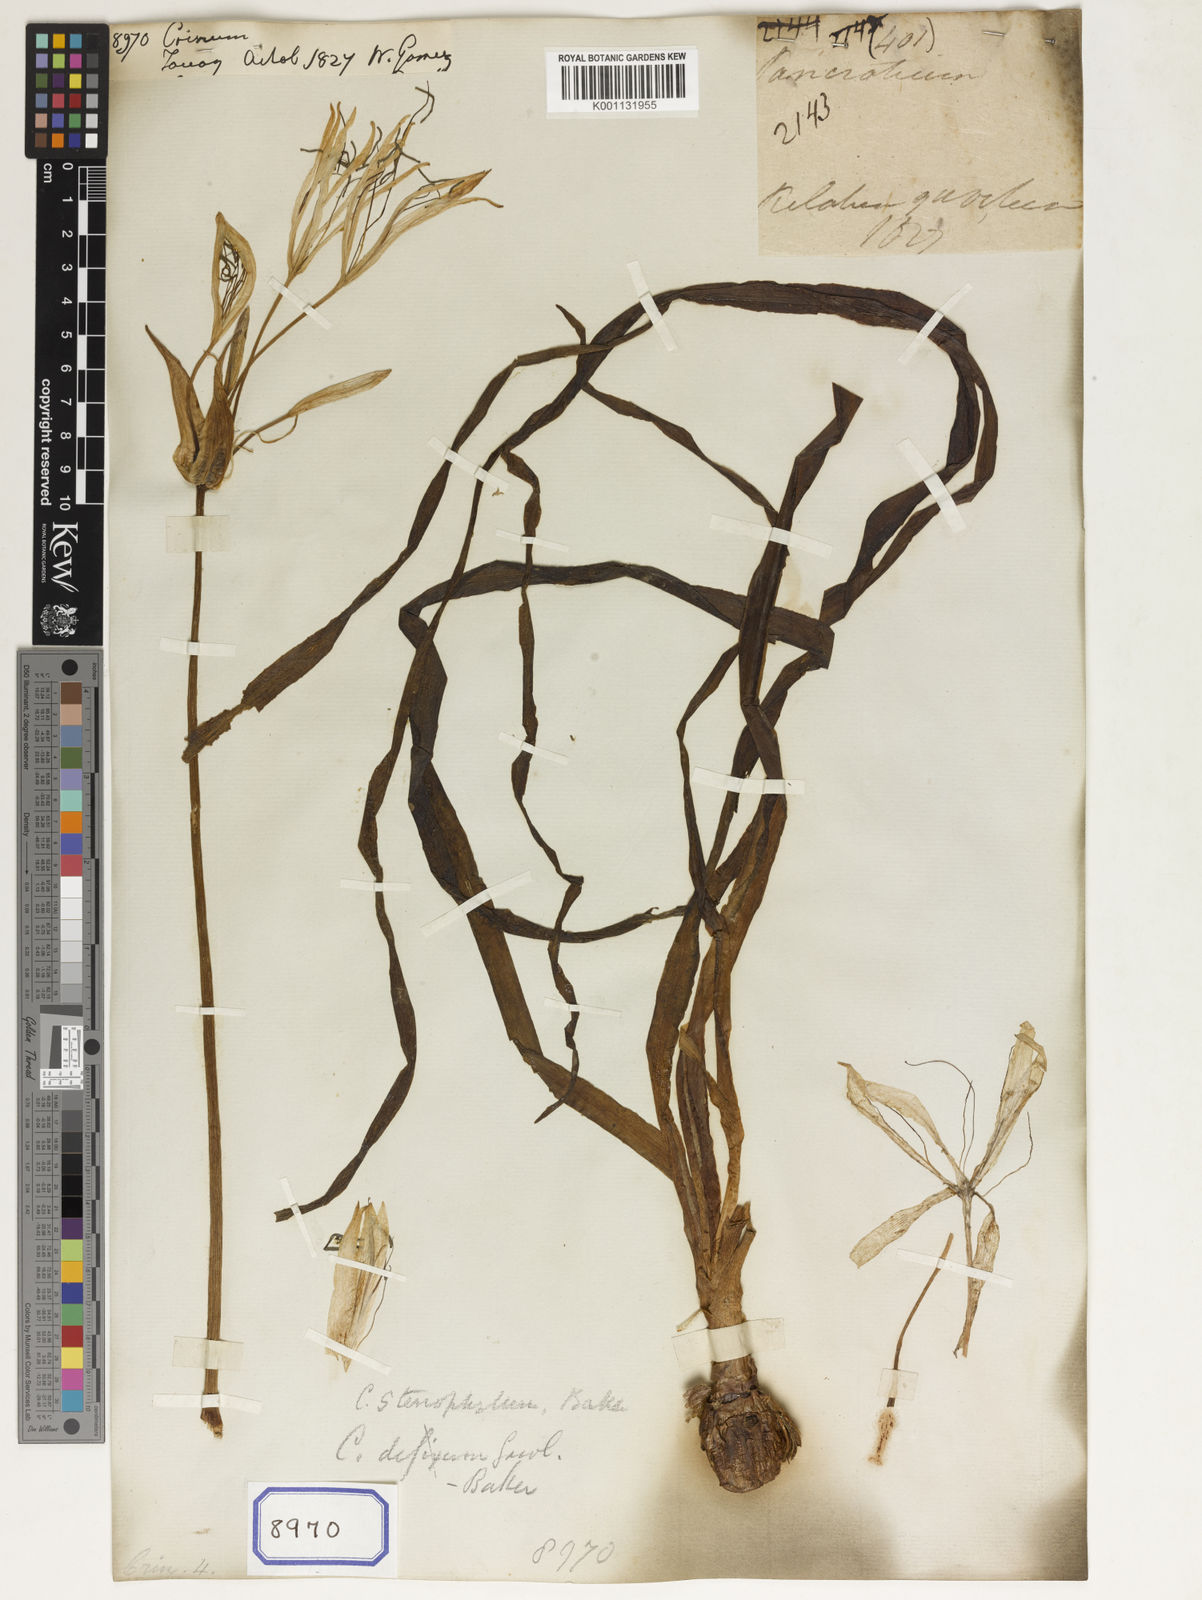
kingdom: Plantae
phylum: Tracheophyta
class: Liliopsida
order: Asparagales
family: Amaryllidaceae
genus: Crinum
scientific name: Crinum
